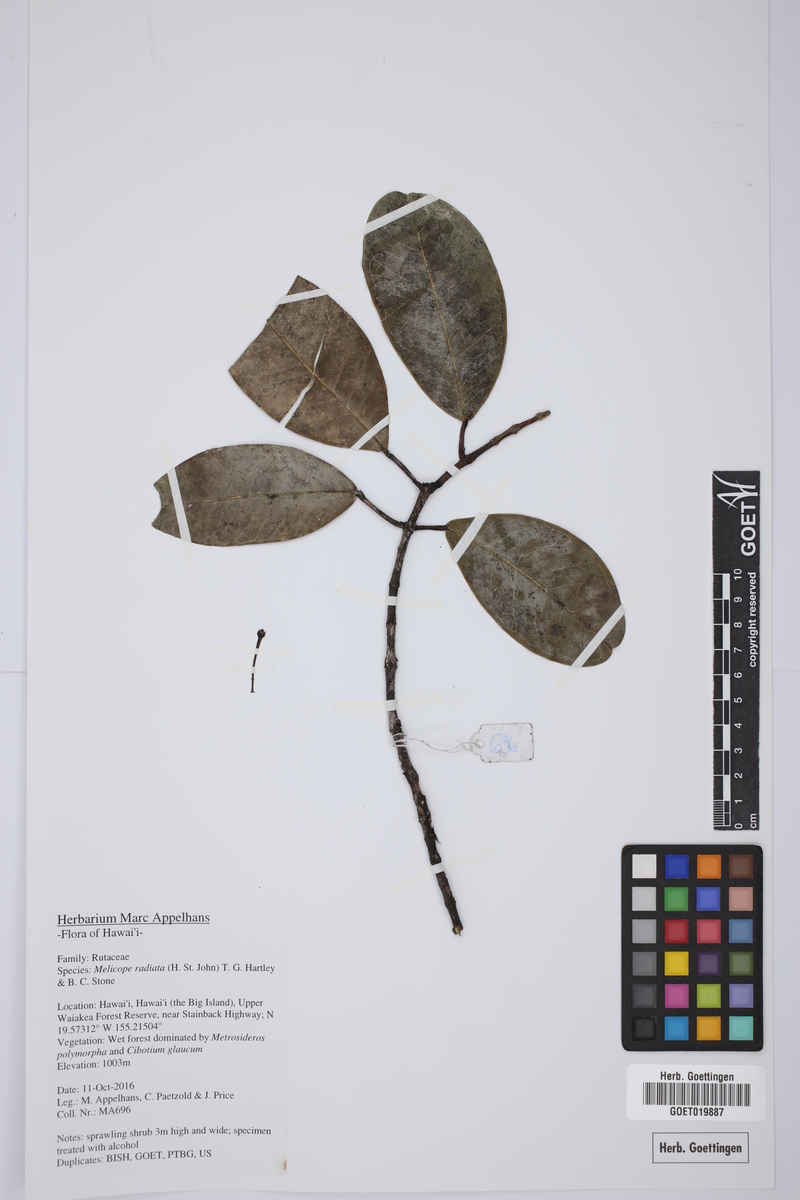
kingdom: Plantae
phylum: Tracheophyta
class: Magnoliopsida
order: Sapindales
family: Rutaceae
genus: Melicope
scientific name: Melicope radiata
